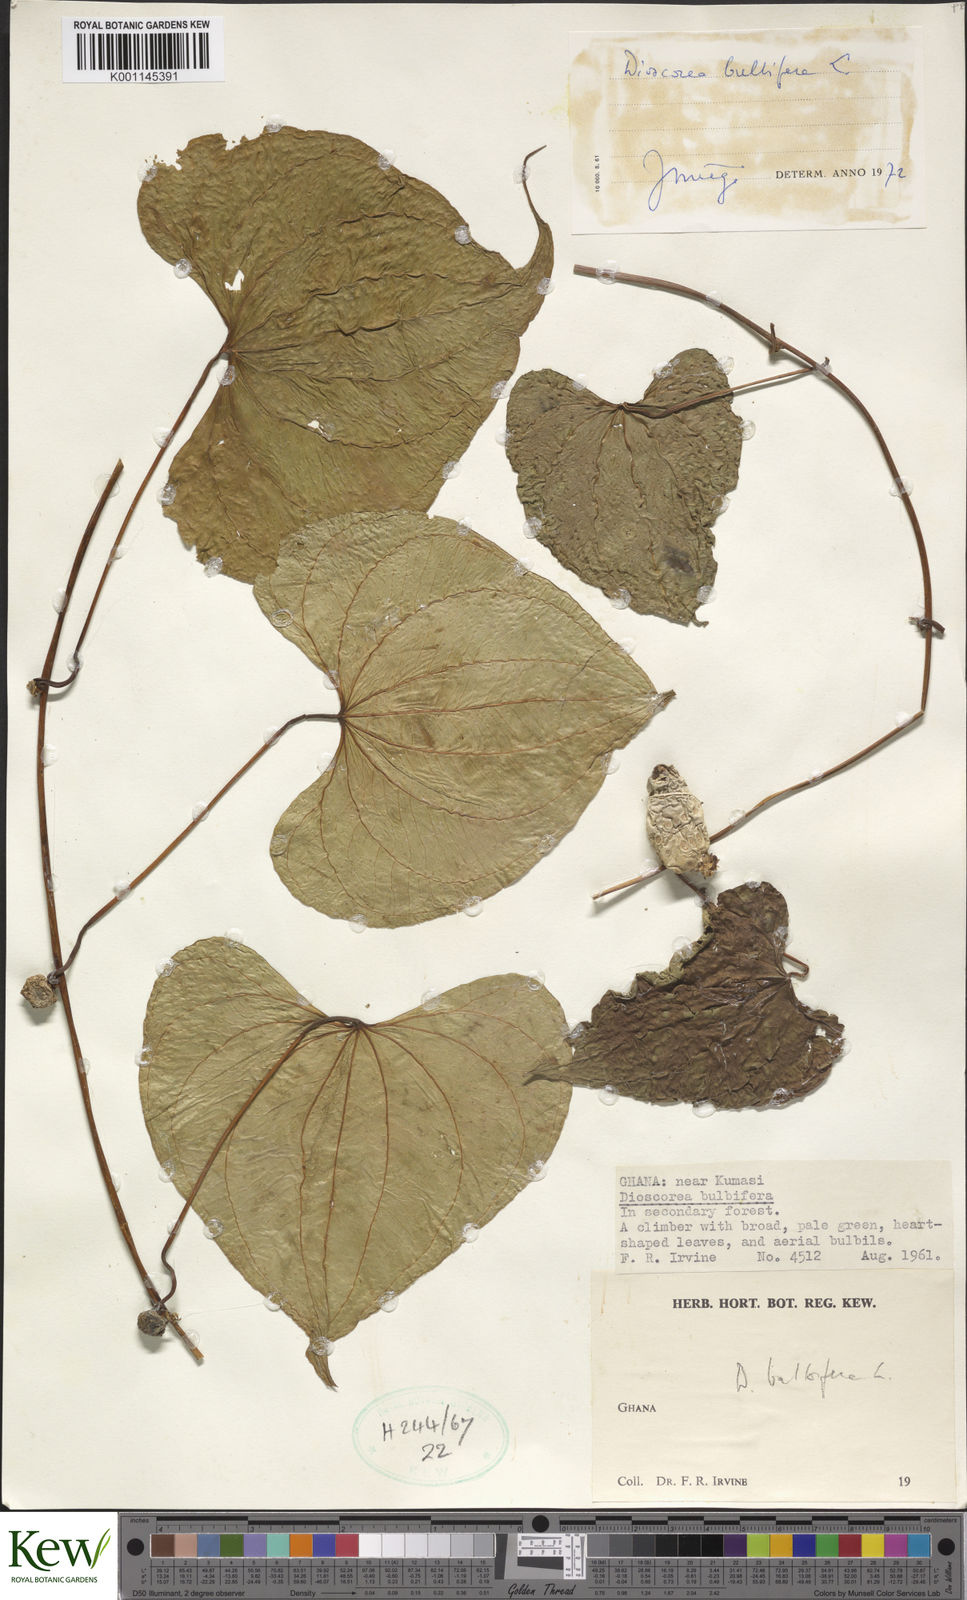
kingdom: Plantae
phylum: Tracheophyta
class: Liliopsida
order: Dioscoreales
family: Dioscoreaceae
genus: Dioscorea
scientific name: Dioscorea bulbifera
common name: Air yam
